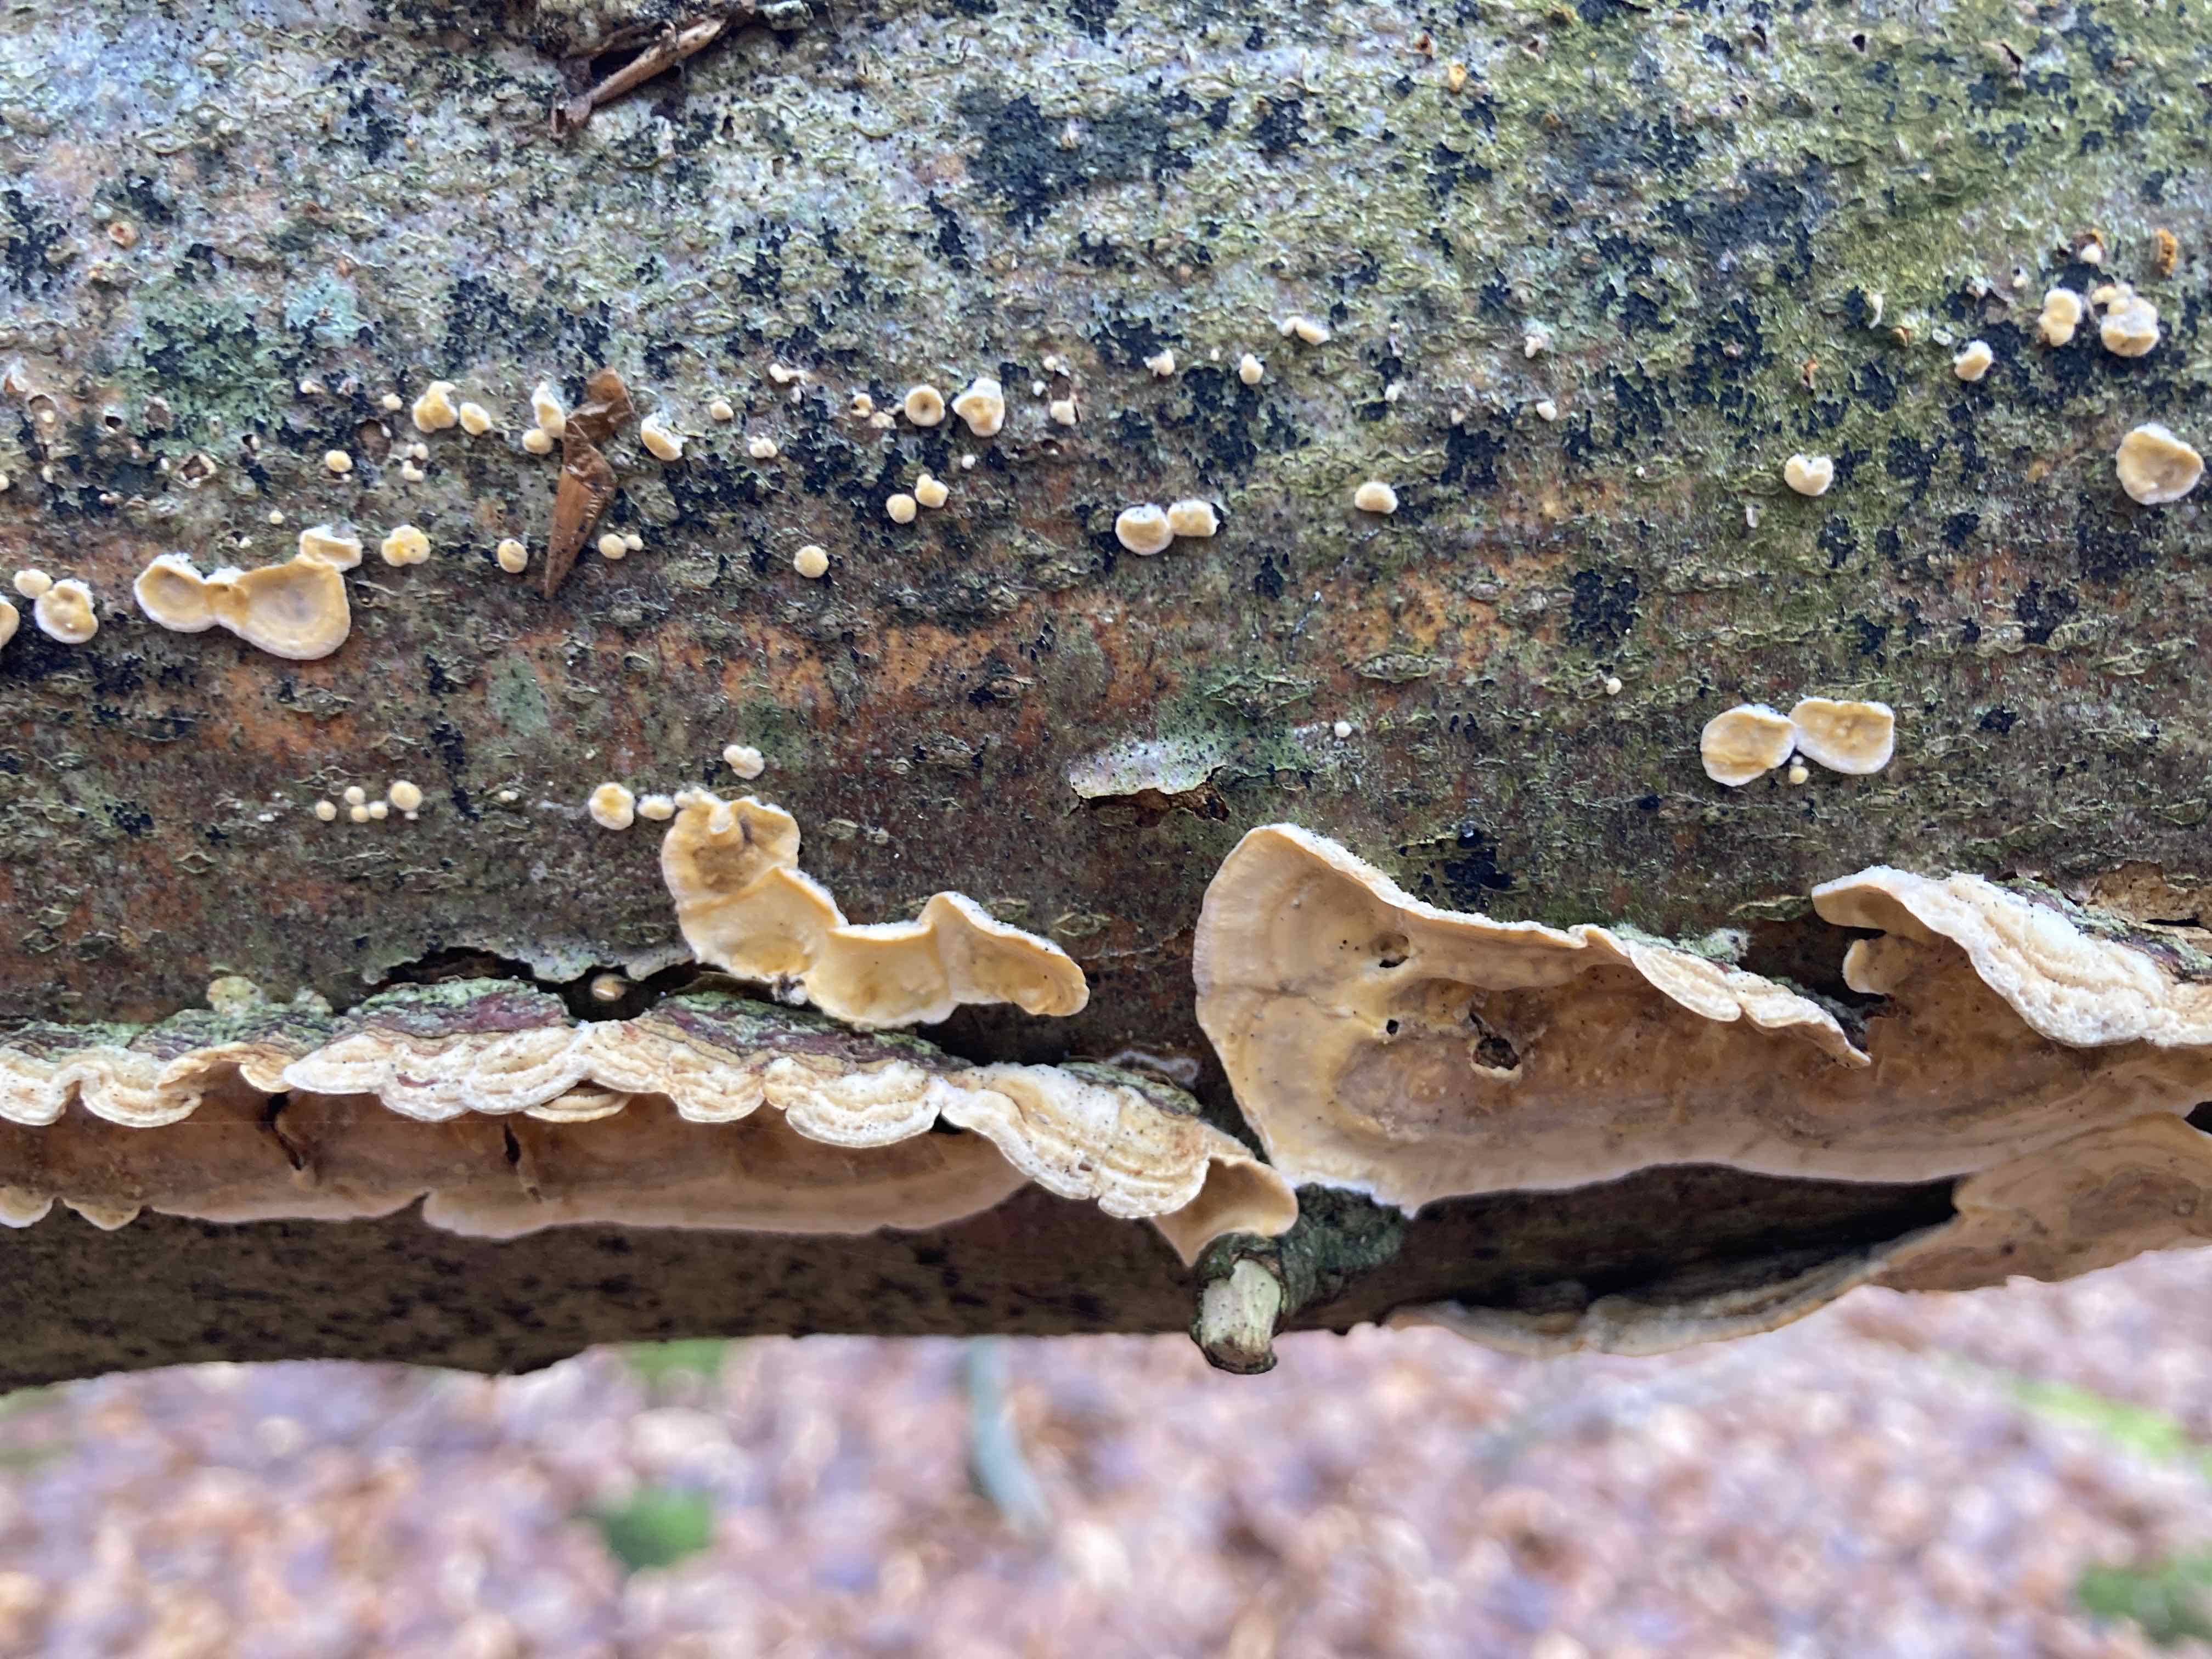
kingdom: Fungi
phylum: Basidiomycota
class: Agaricomycetes
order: Russulales
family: Stereaceae
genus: Stereum
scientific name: Stereum hirsutum
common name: håret lædersvamp
